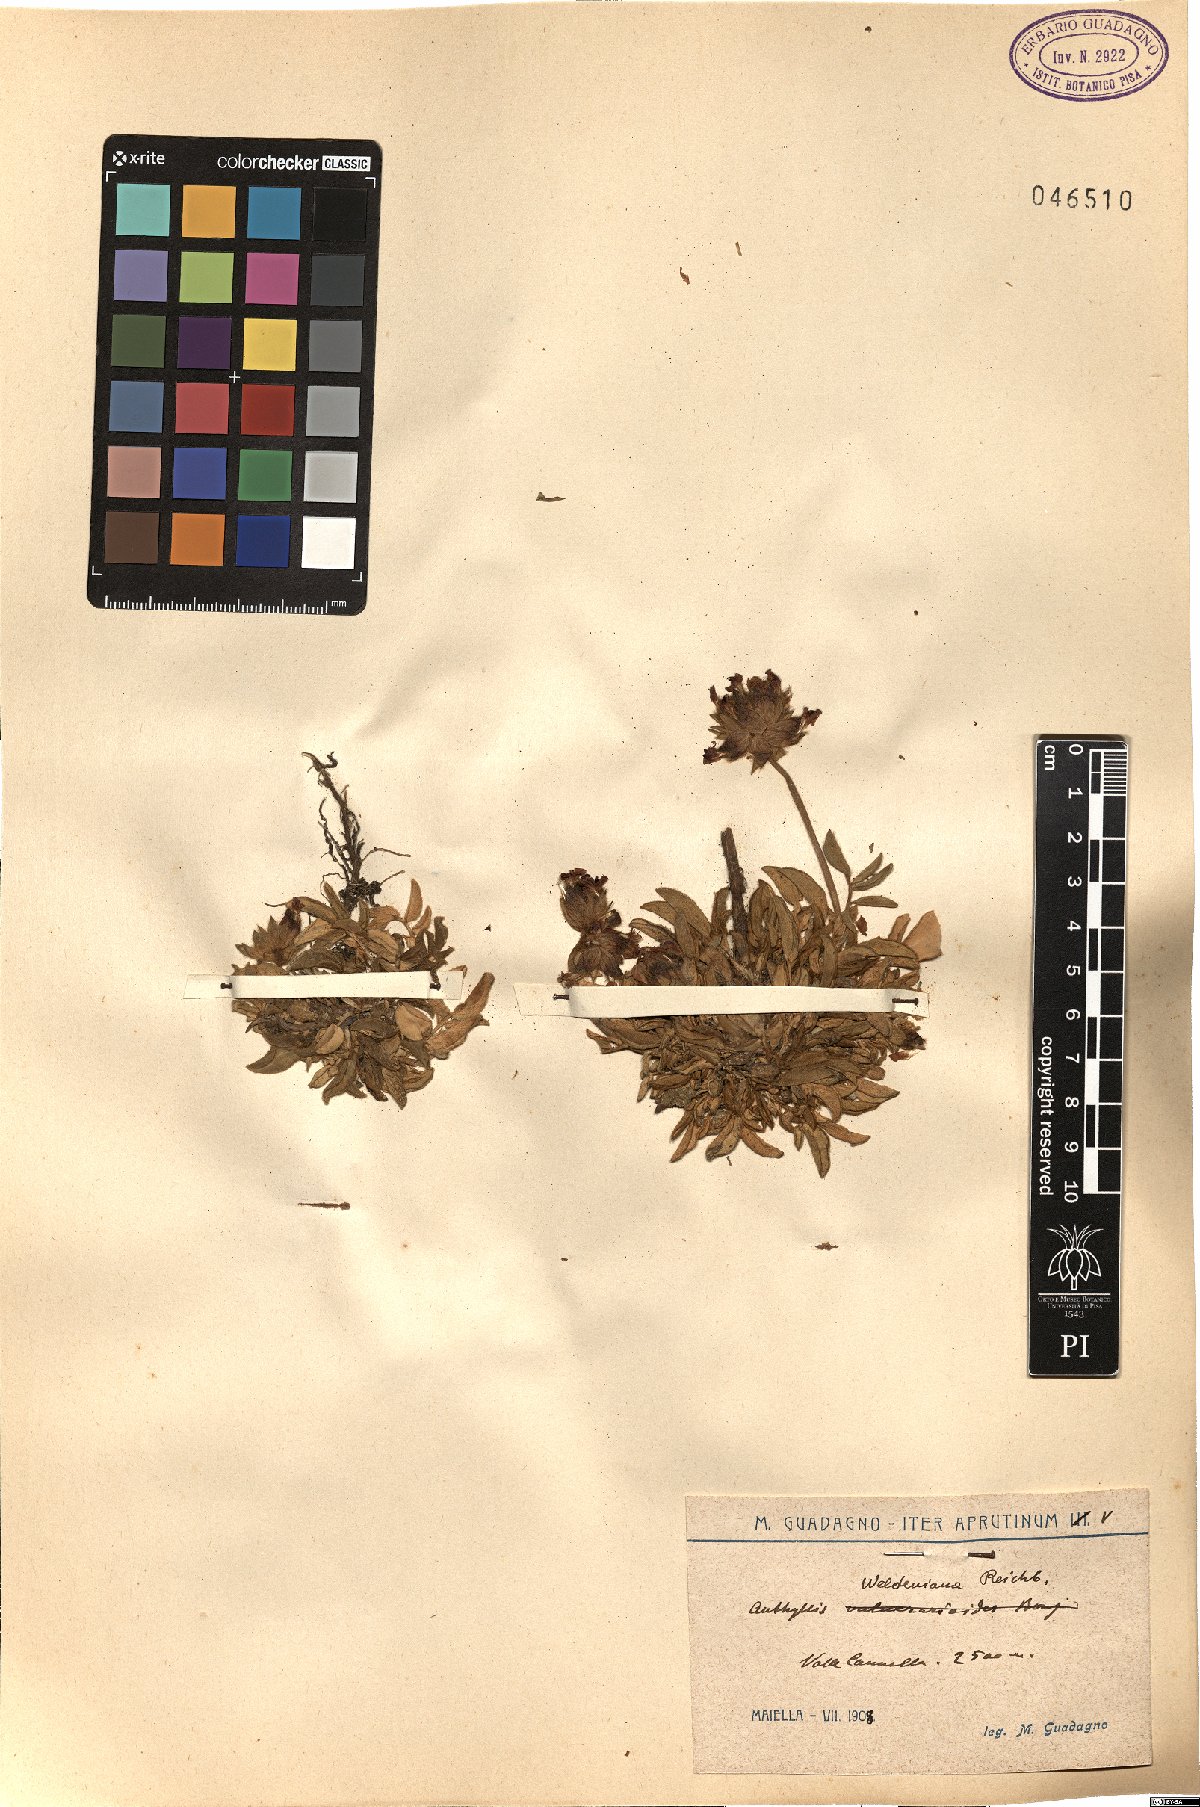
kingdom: Plantae
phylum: Tracheophyta
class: Magnoliopsida
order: Fabales
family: Fabaceae
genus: Anthyllis
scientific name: Anthyllis vulneraria
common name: Kidney vetch
